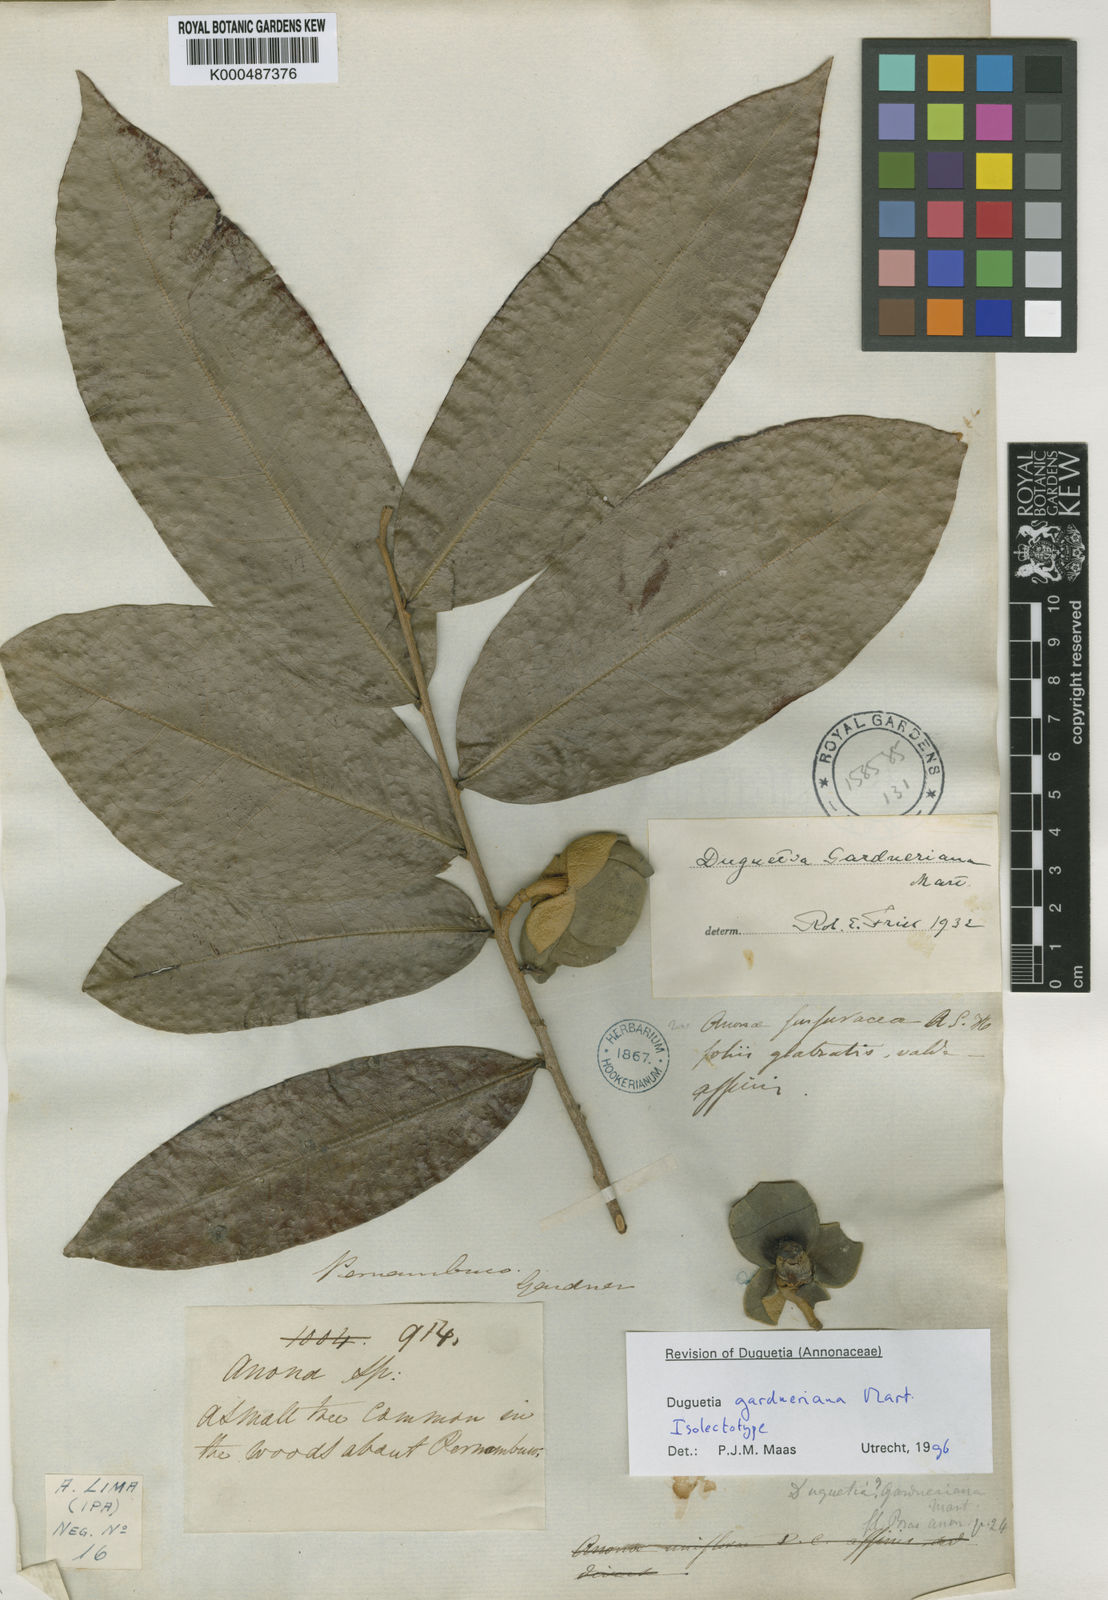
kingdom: Plantae
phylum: Tracheophyta
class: Magnoliopsida
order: Magnoliales
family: Annonaceae
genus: Duguetia
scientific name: Duguetia gardneriana
